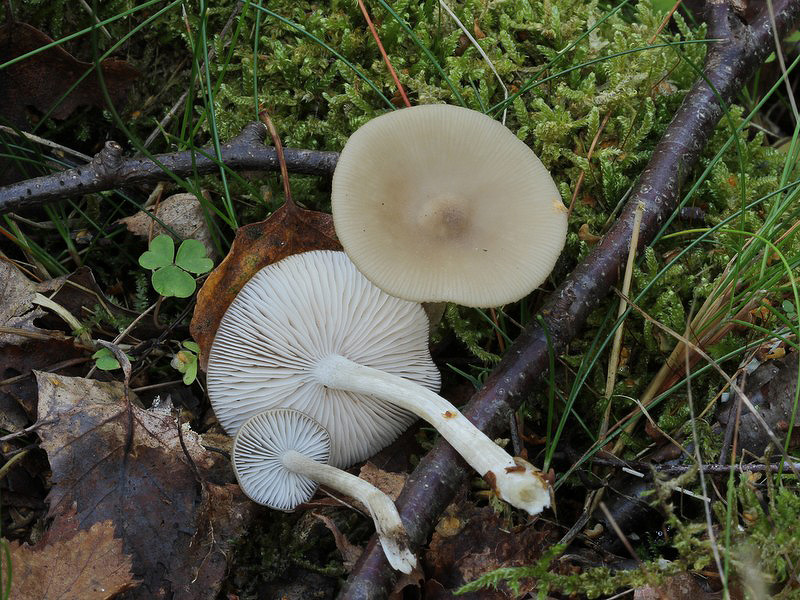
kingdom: Fungi
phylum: Basidiomycota
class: Agaricomycetes
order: Agaricales
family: Entolomataceae
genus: Entoloma
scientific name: Entoloma rhodopolium
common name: skov-rødblad
